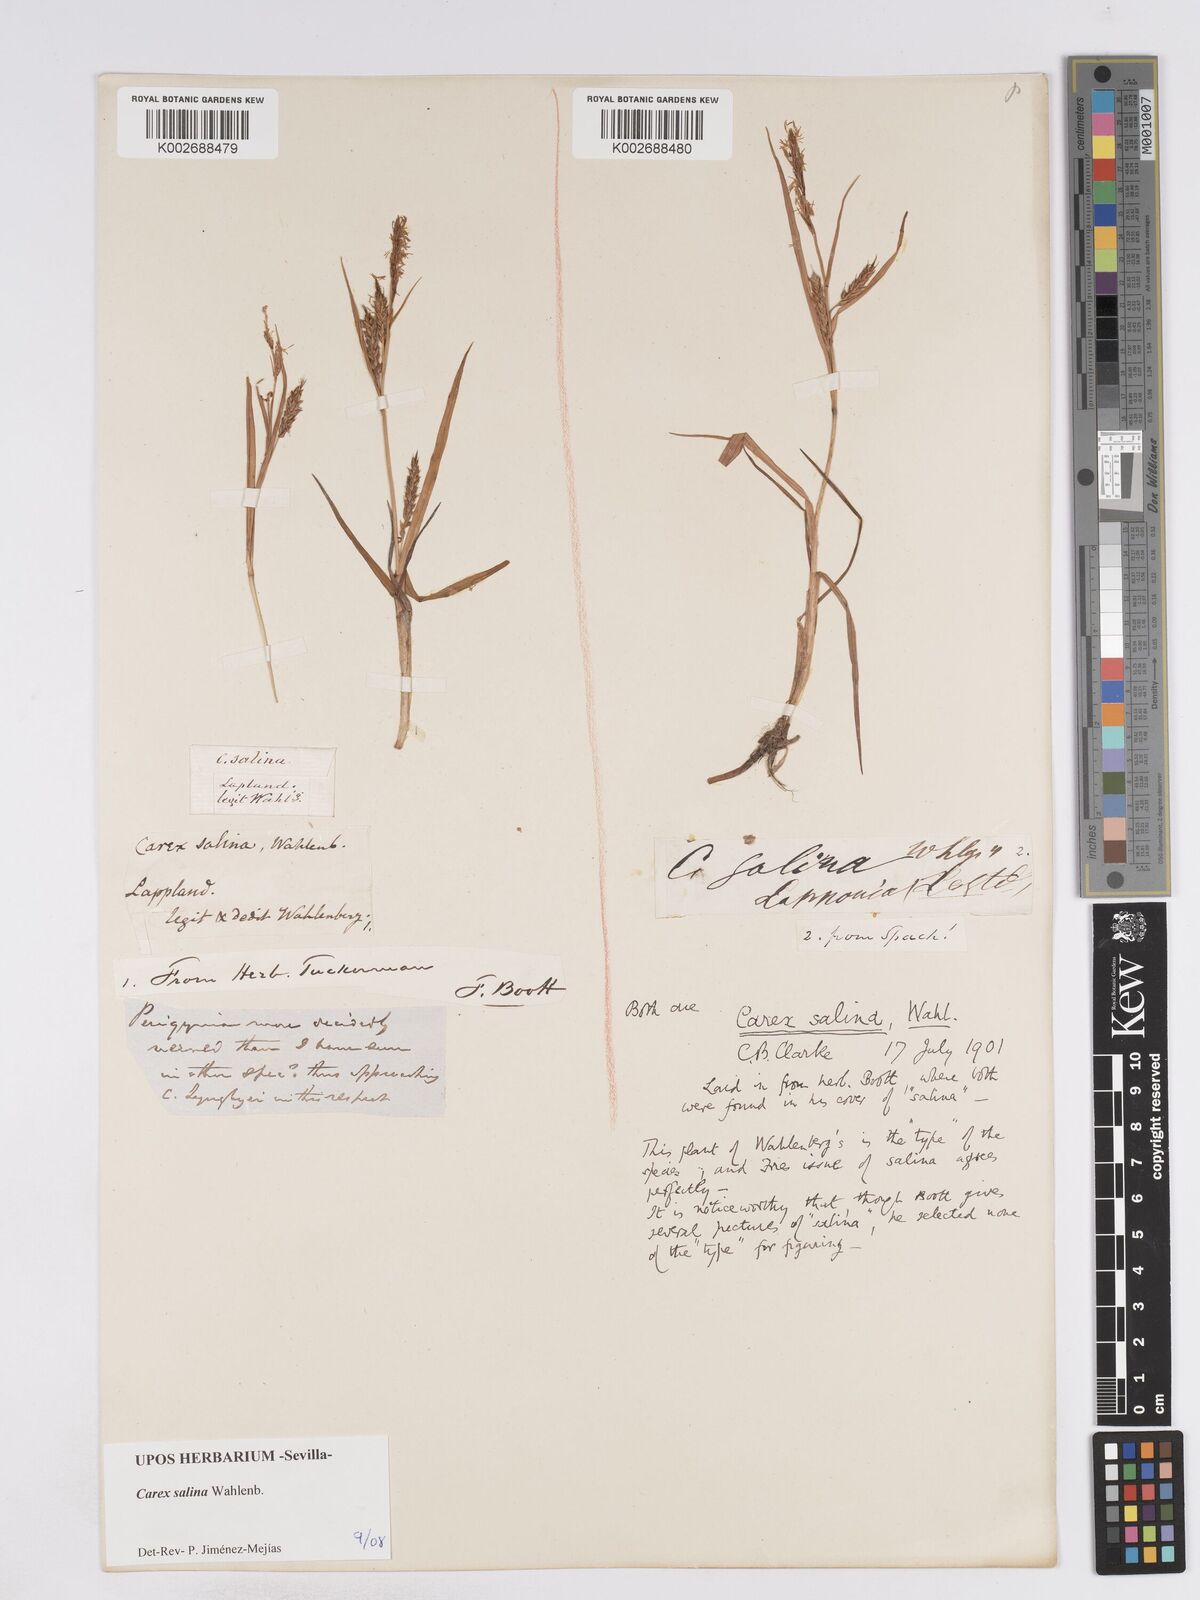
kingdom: Plantae
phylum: Tracheophyta
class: Liliopsida
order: Poales
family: Cyperaceae
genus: Carex
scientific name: Carex salina
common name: Saltmarsh sedge
